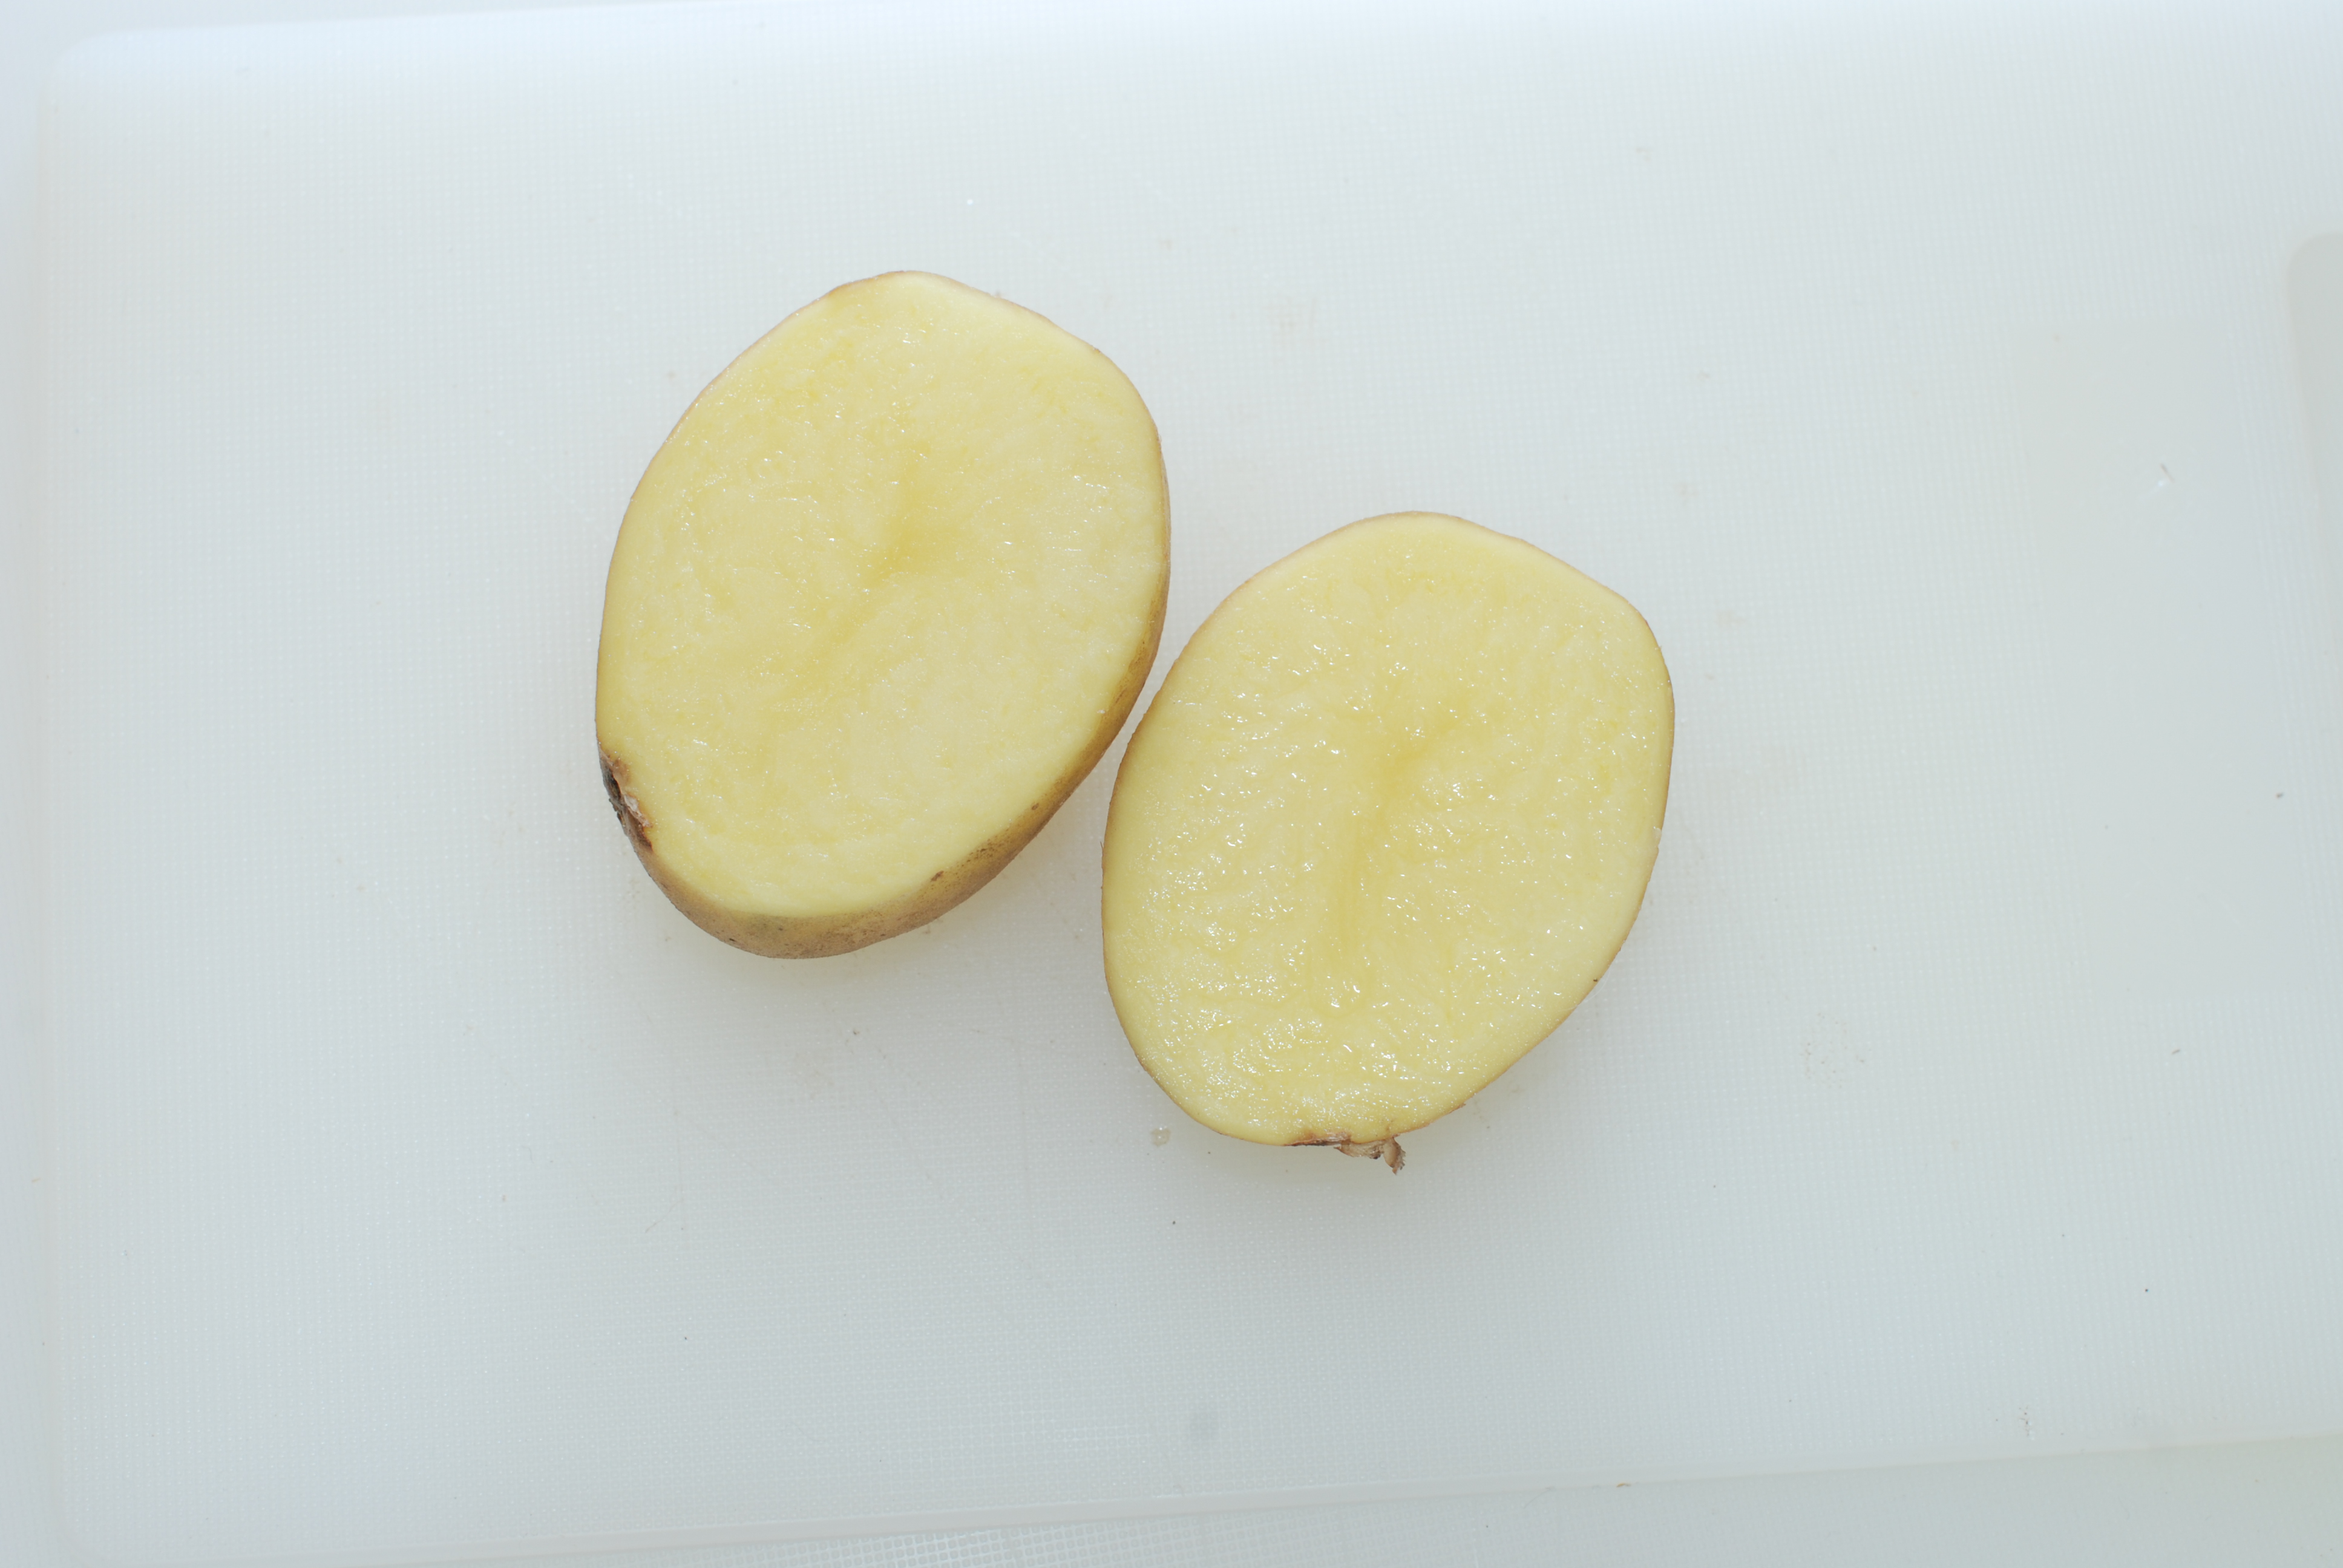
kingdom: Plantae
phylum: Tracheophyta
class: Magnoliopsida
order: Solanales
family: Solanaceae
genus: Solanum
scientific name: Solanum tuberosum
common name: Potato
